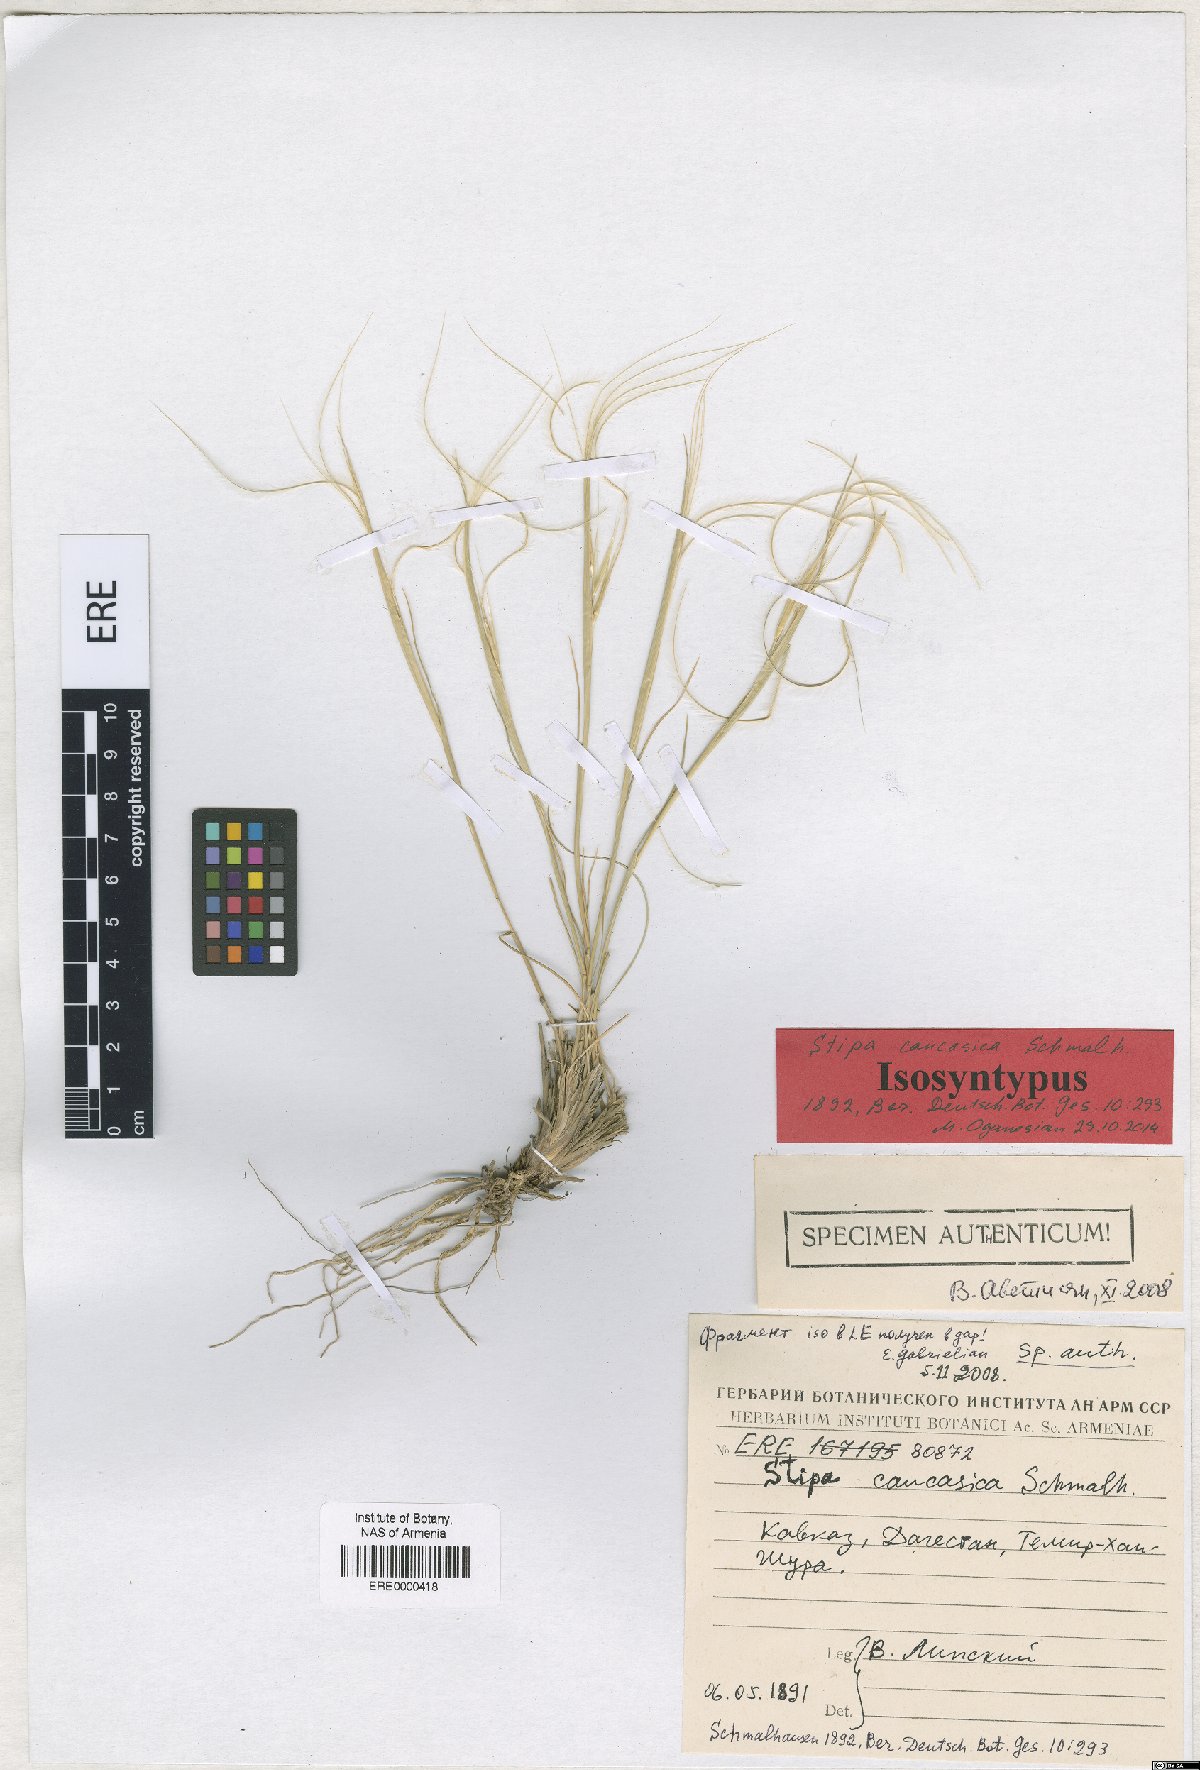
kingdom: Plantae
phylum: Tracheophyta
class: Liliopsida
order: Poales
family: Poaceae
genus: Stipa
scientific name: Stipa caucasica
